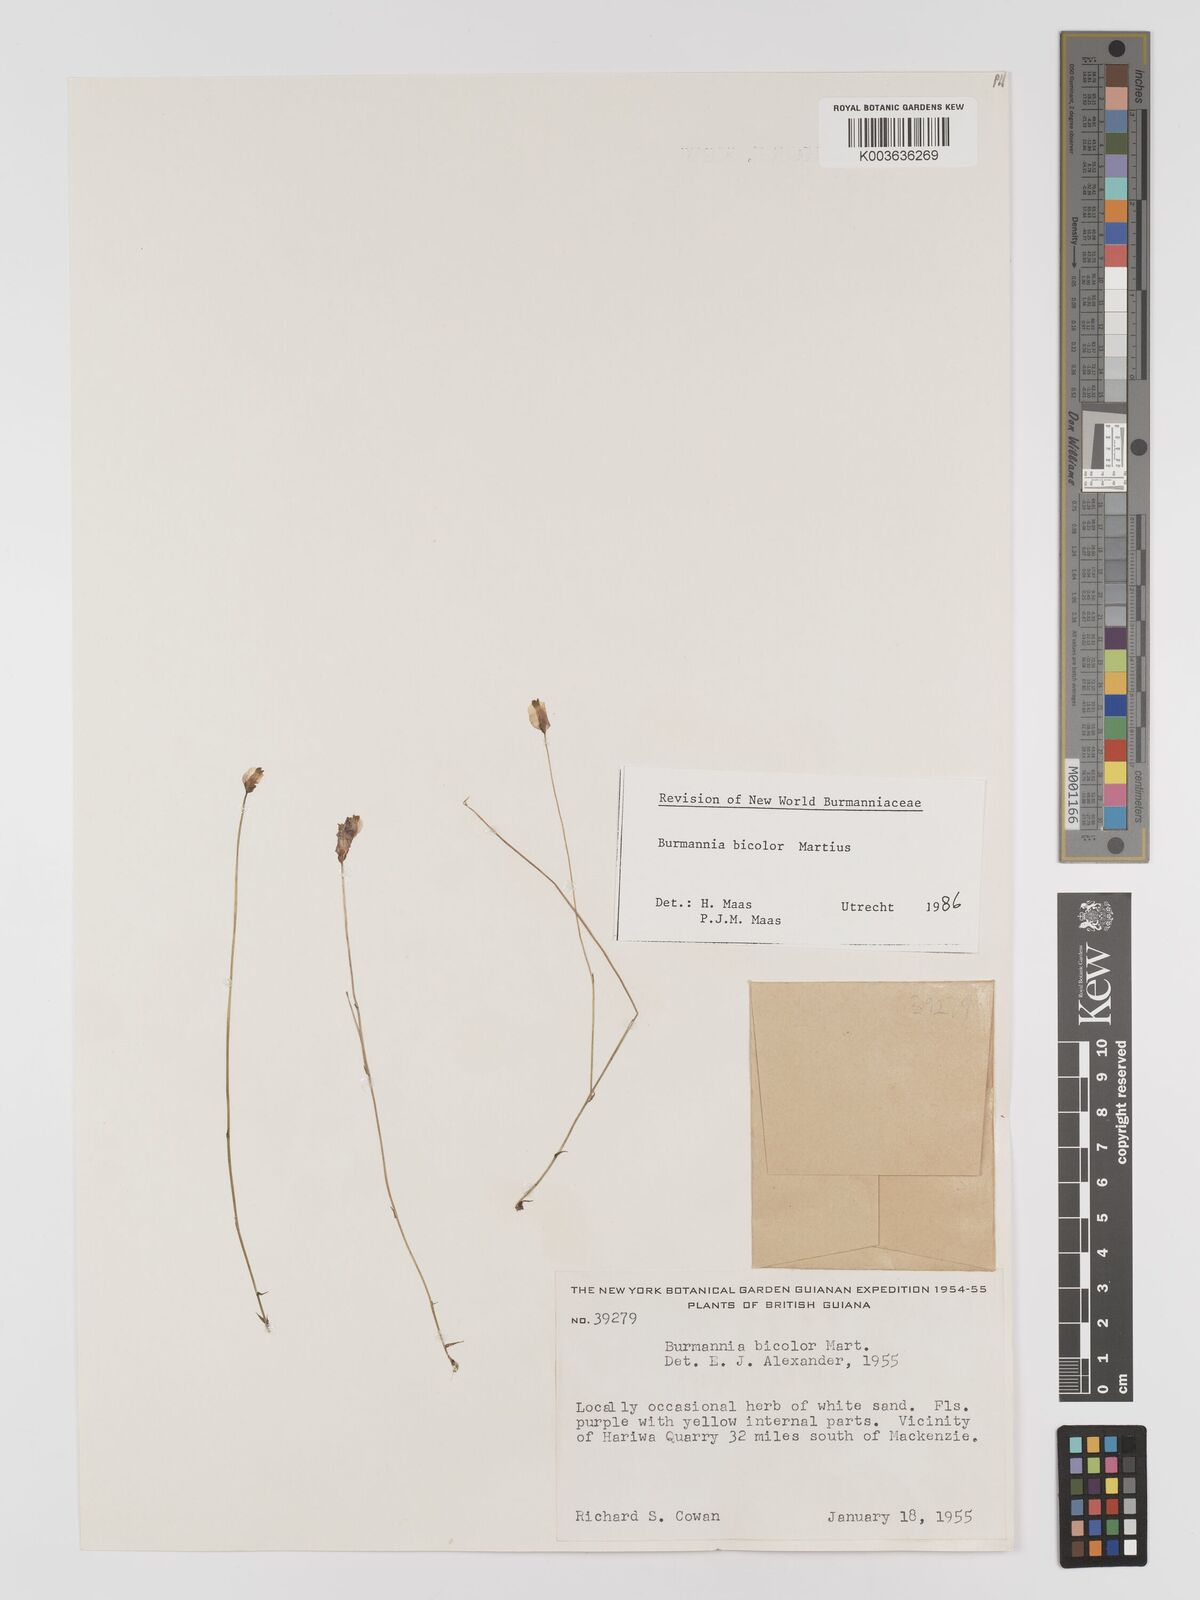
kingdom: Plantae
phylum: Tracheophyta
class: Liliopsida
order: Dioscoreales
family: Burmanniaceae
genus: Burmannia
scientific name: Burmannia bicolor
